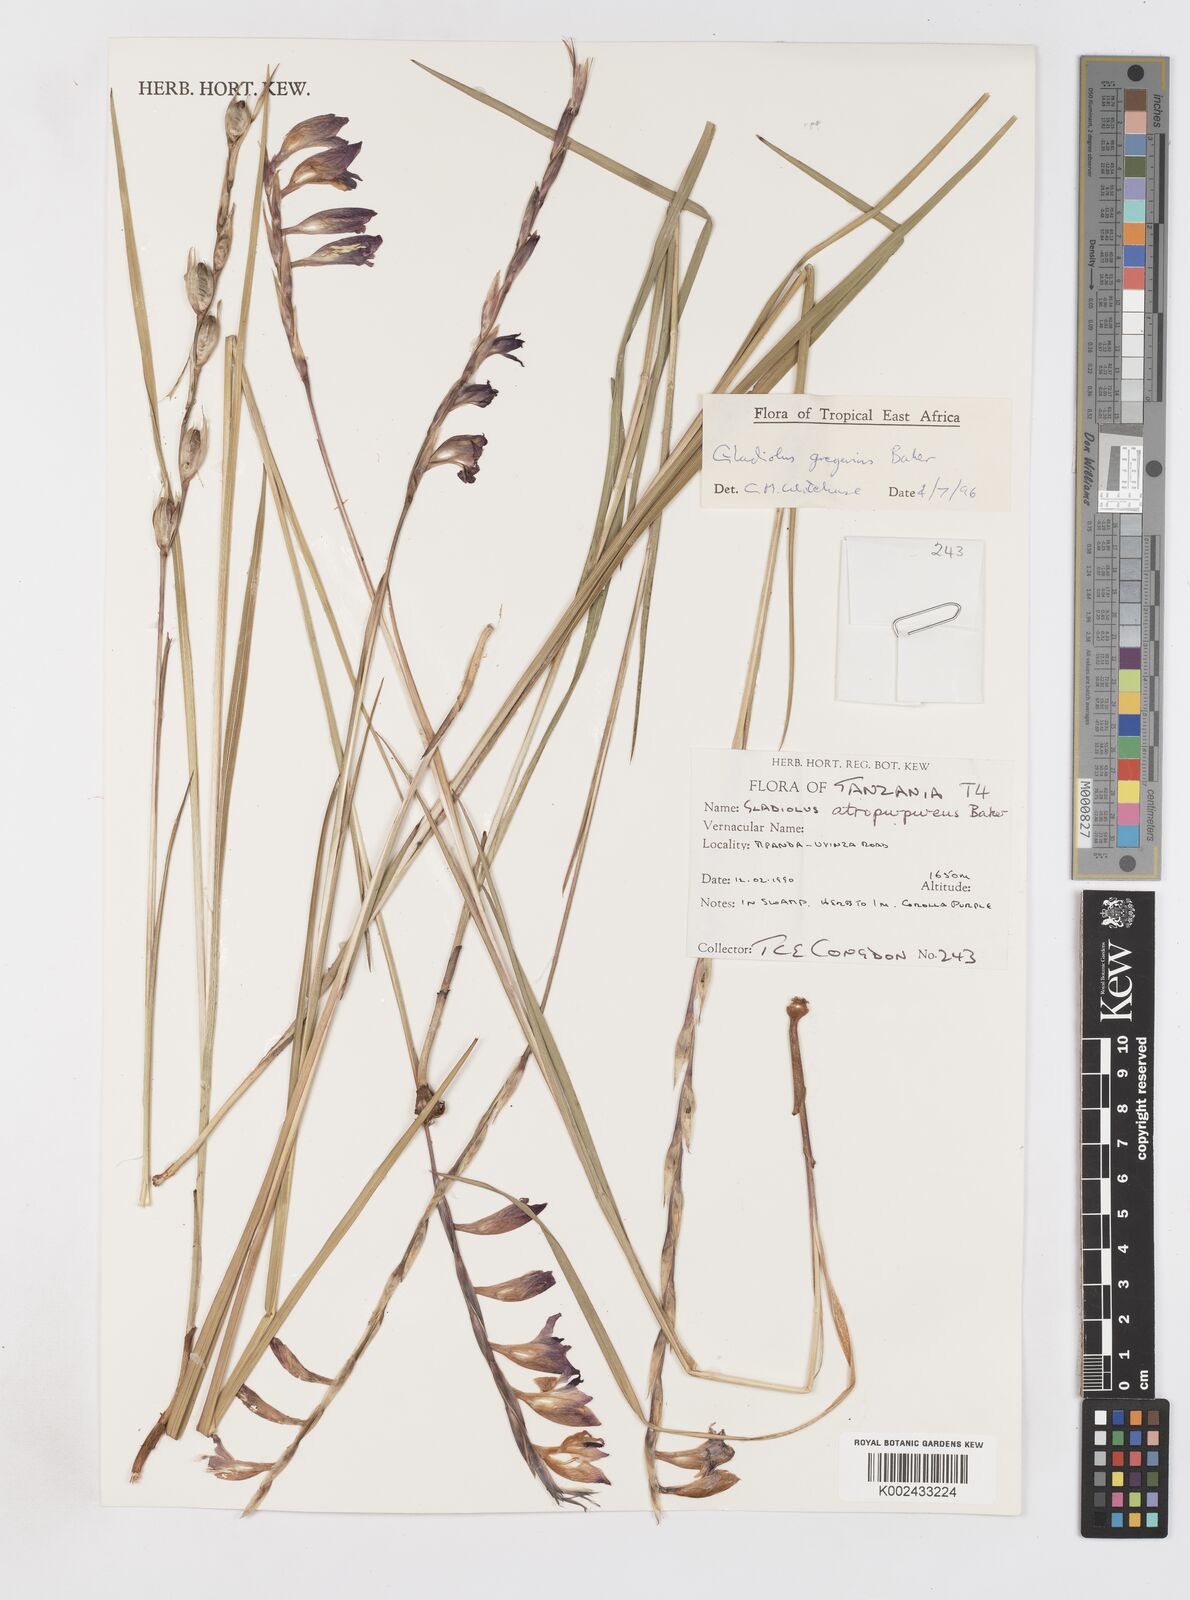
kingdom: Plantae
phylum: Tracheophyta
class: Liliopsida
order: Asparagales
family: Iridaceae
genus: Gladiolus
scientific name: Gladiolus gregarius
